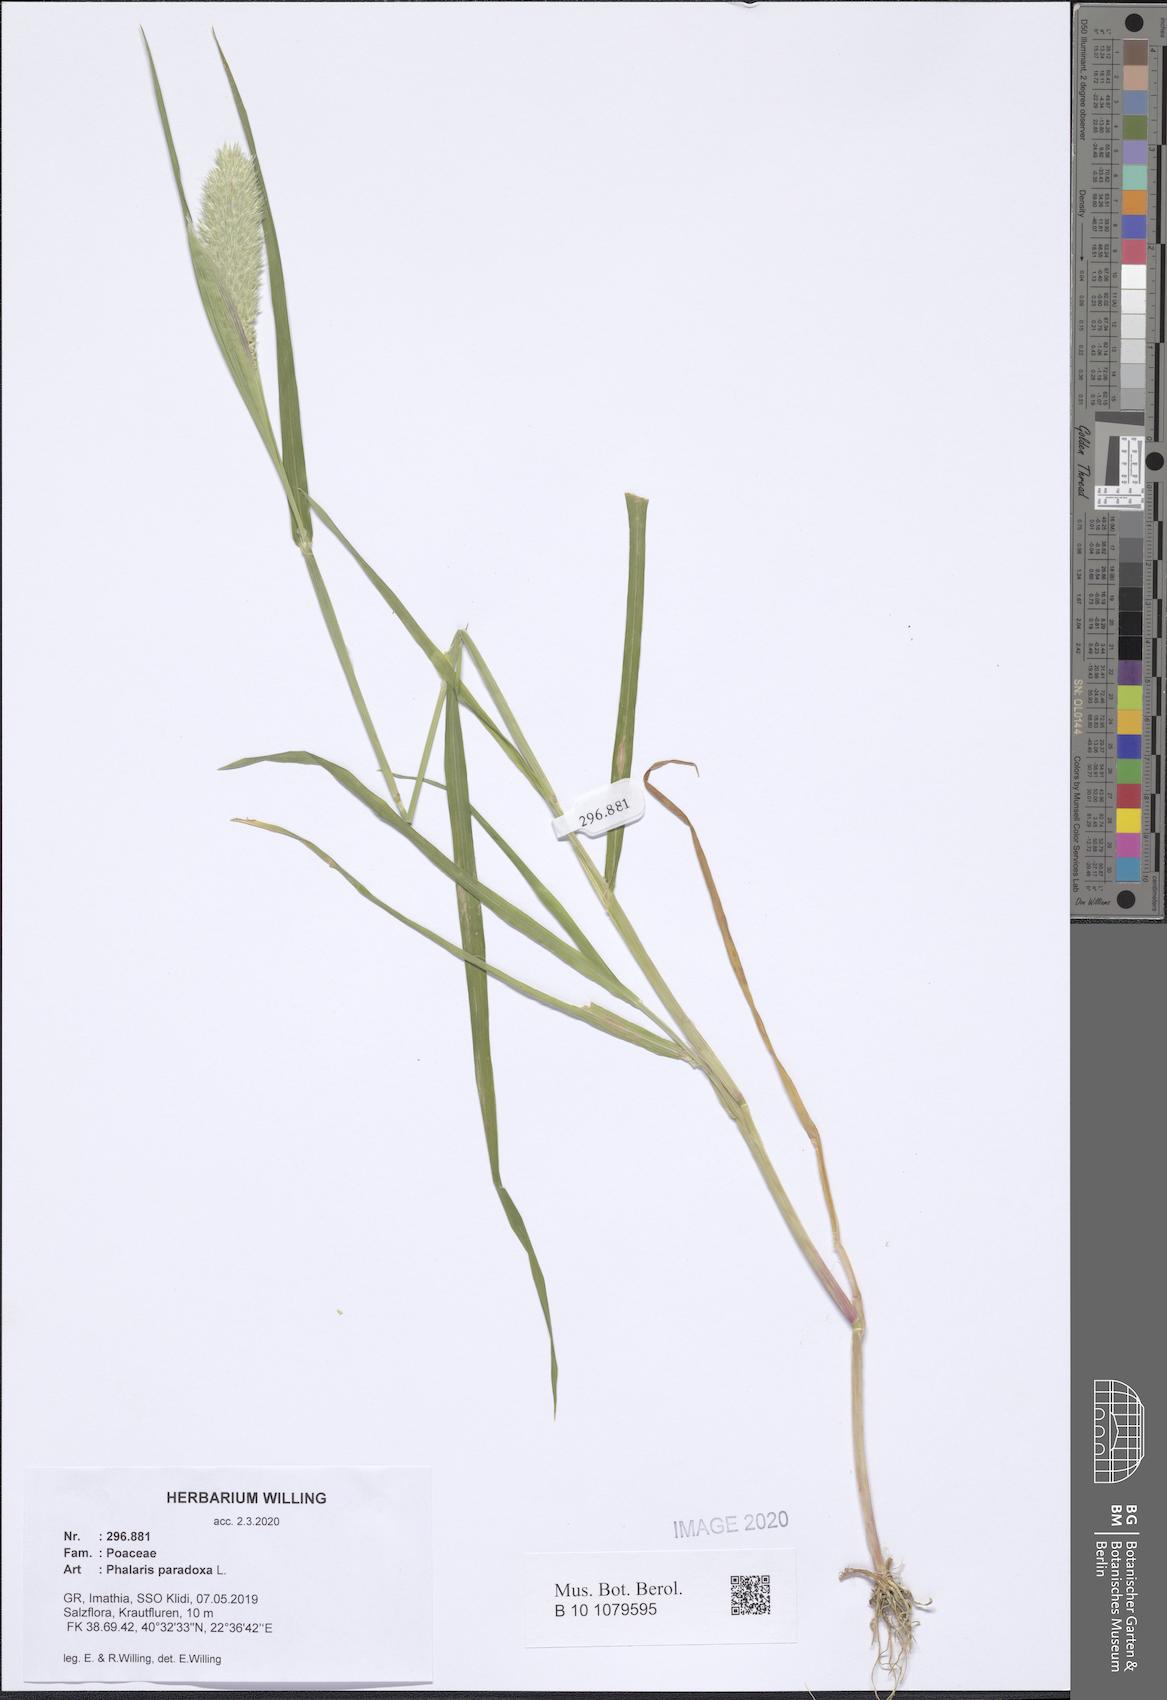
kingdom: Plantae
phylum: Tracheophyta
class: Liliopsida
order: Poales
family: Poaceae
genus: Phalaris
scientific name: Phalaris paradoxa
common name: Awned canary-grass
